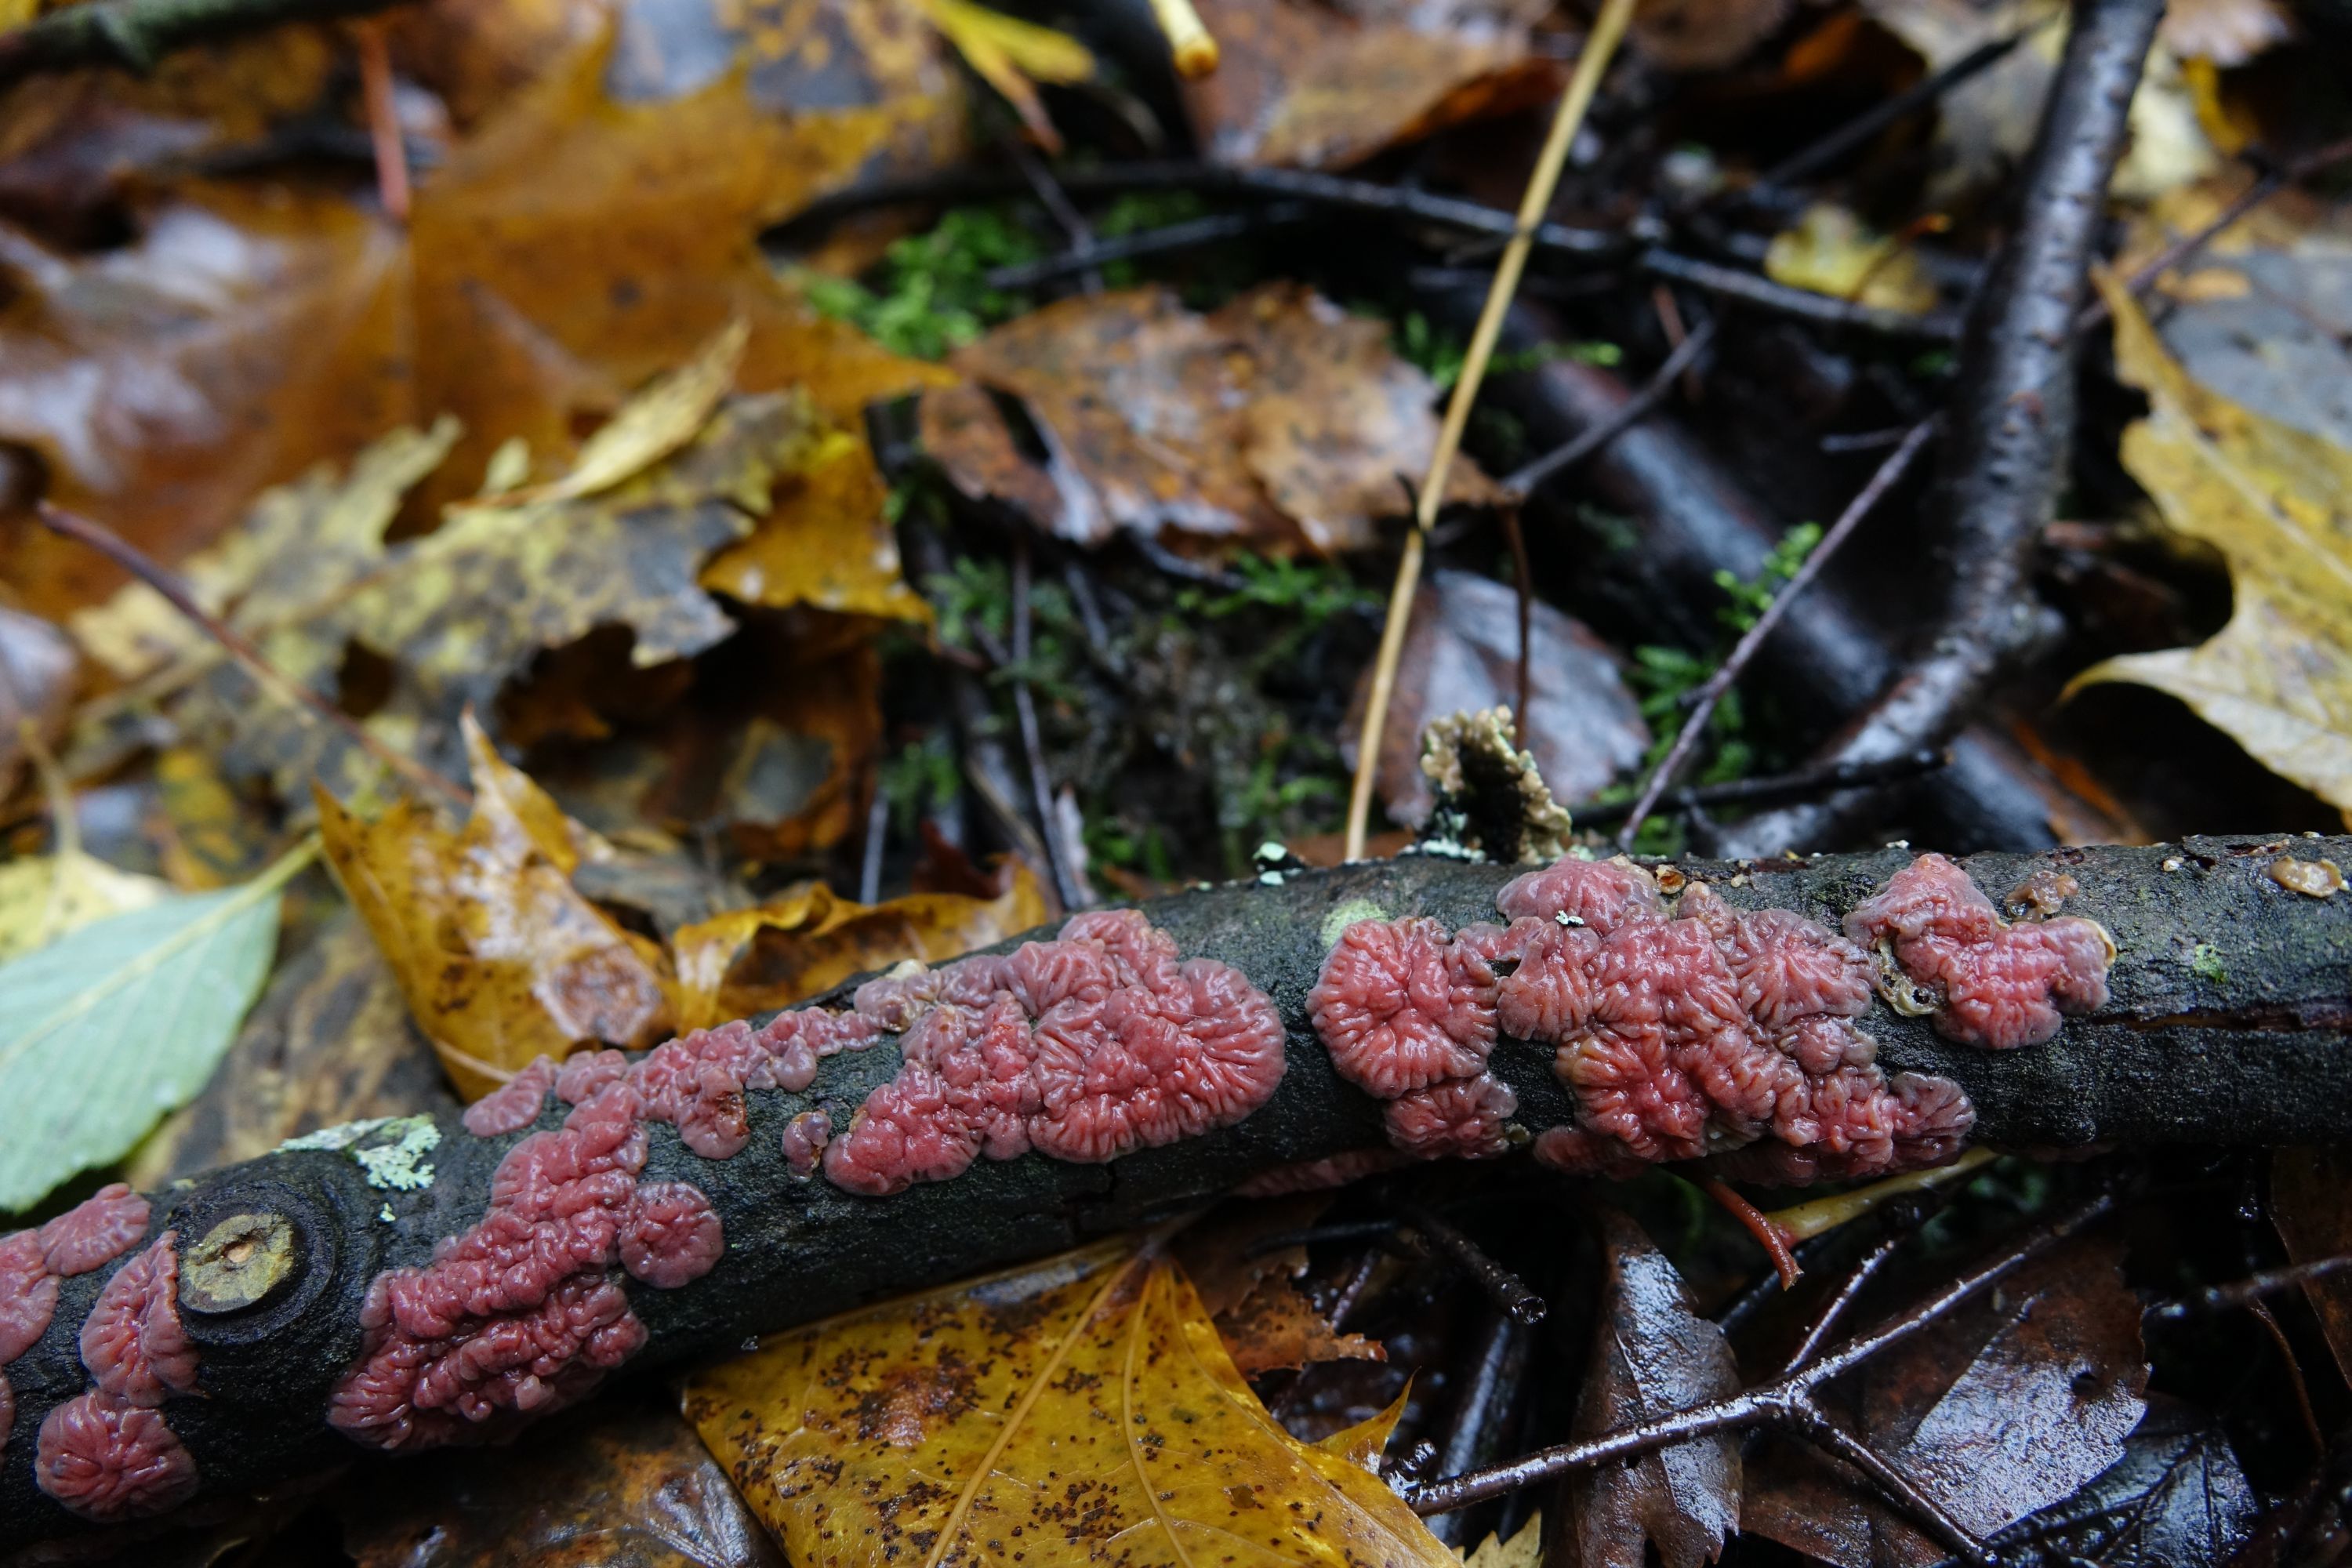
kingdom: Fungi
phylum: Basidiomycota
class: Agaricomycetes
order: Corticiales
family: Vuilleminiaceae
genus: Cytidia
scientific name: Cytidia salicina
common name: Scarlet splash
